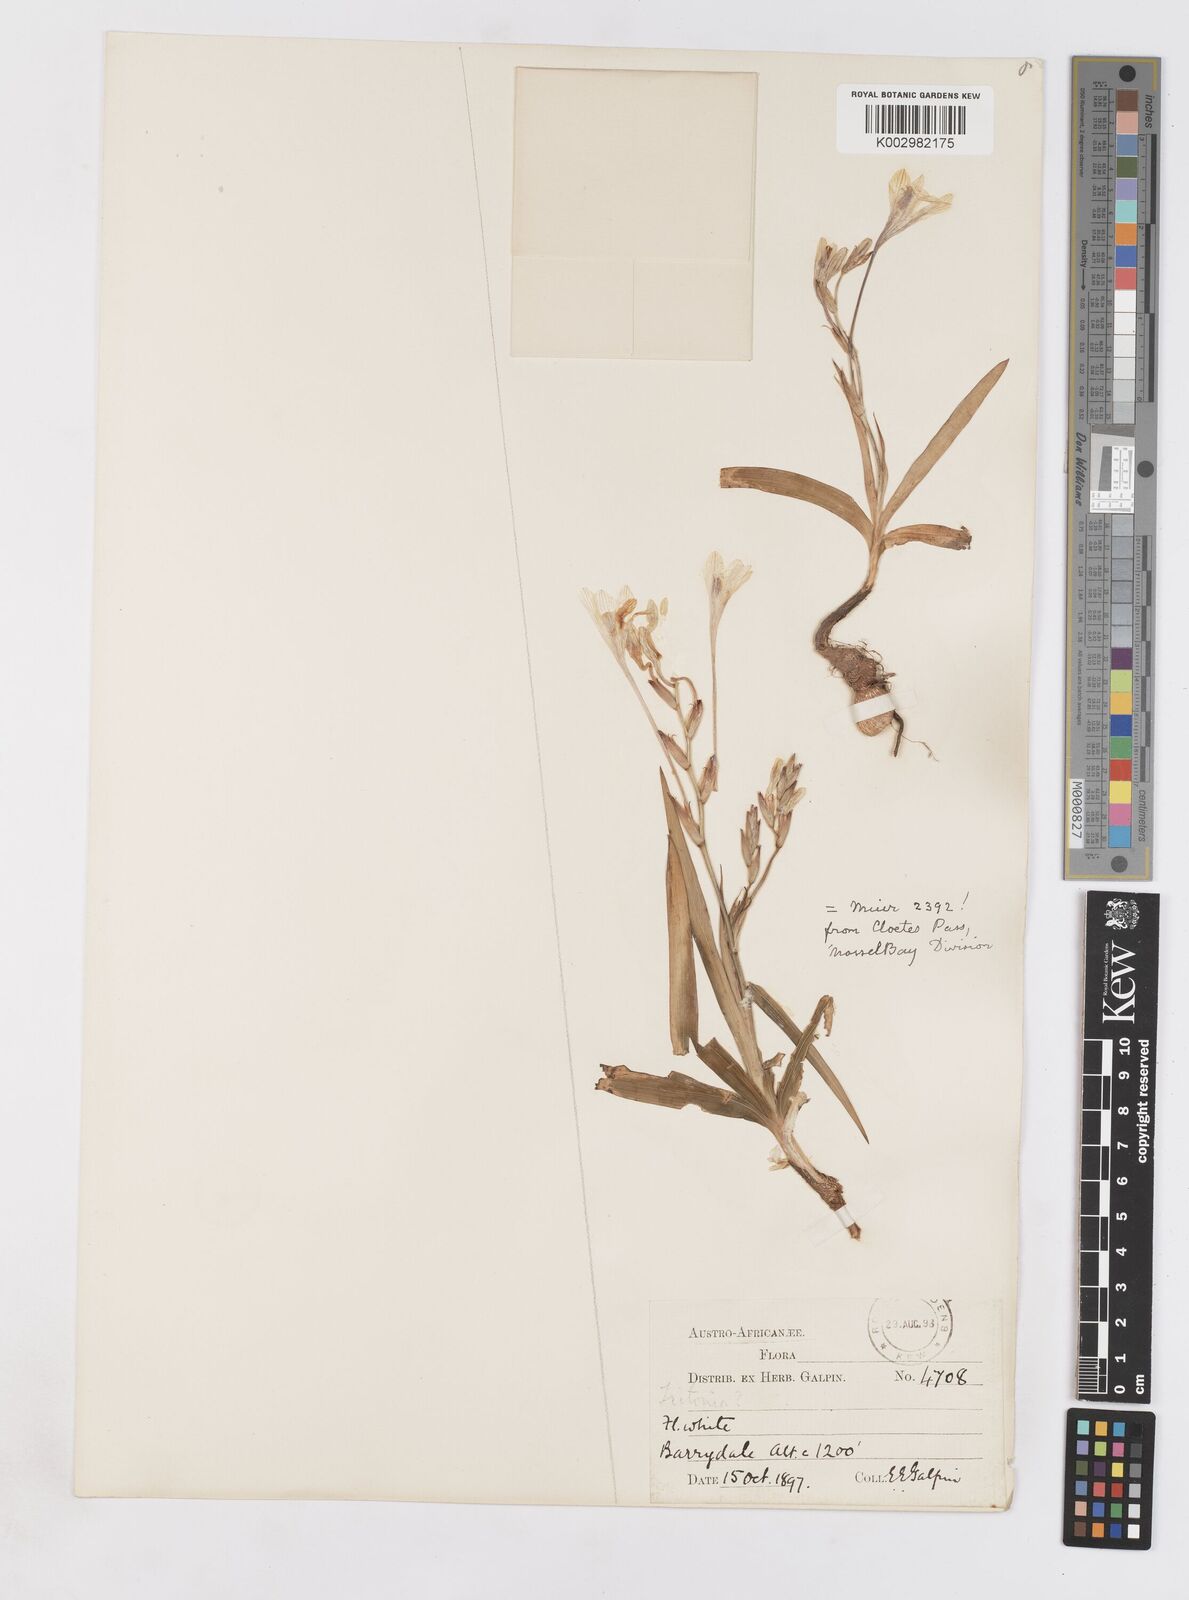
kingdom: Plantae
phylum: Tracheophyta
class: Liliopsida
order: Asparagales
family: Iridaceae
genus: Tritonia
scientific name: Tritonia pallida
